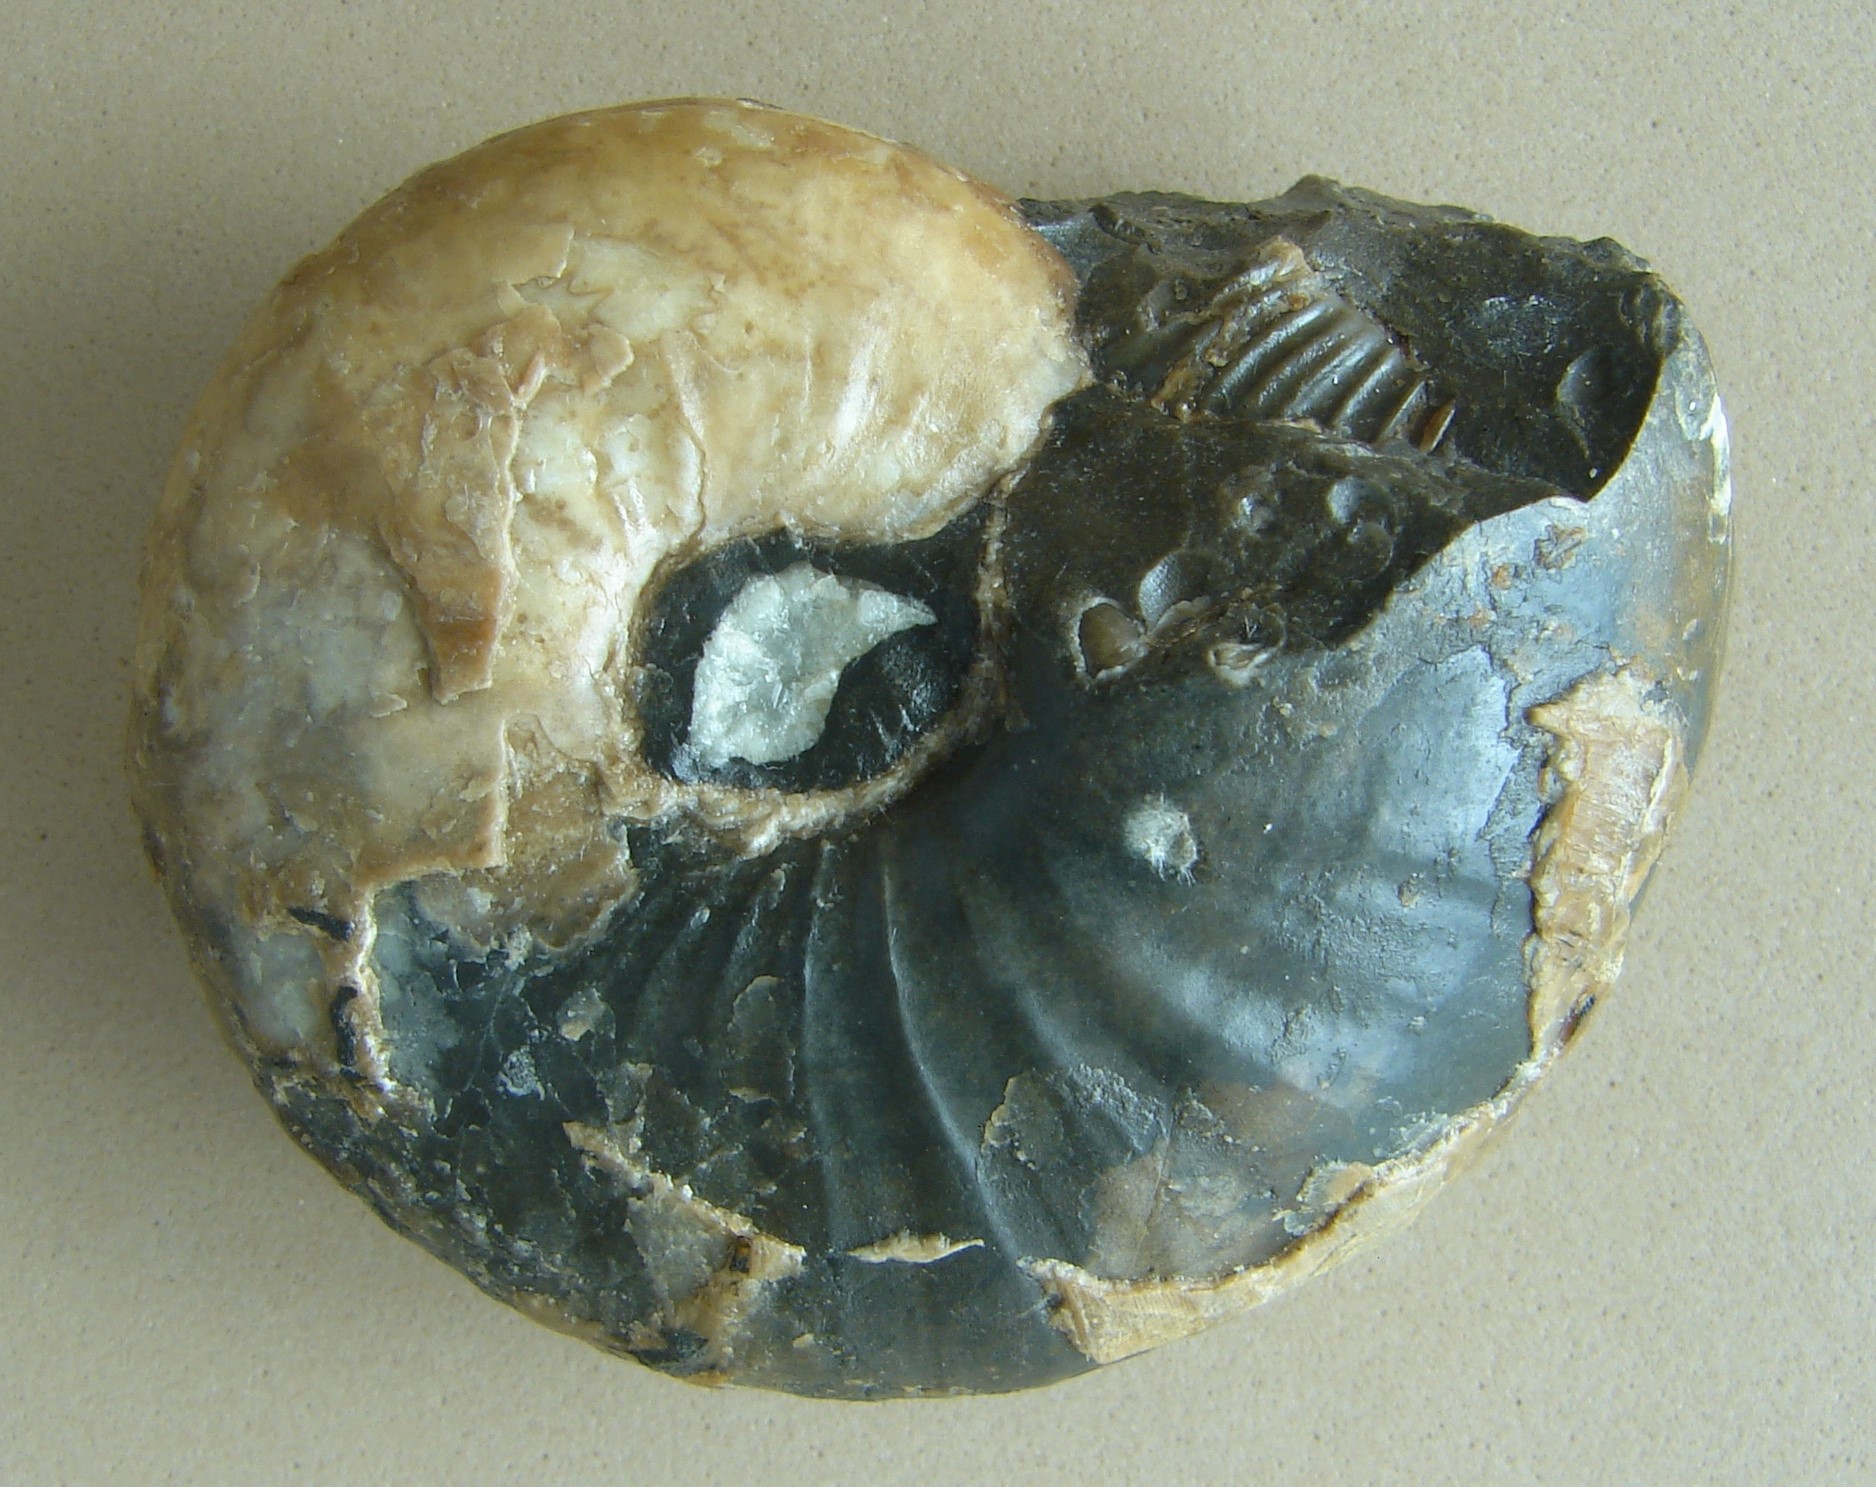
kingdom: Animalia
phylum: Mollusca
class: Cephalopoda
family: Hildoceratidae
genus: Frechiella
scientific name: Frechiella subcarinata
